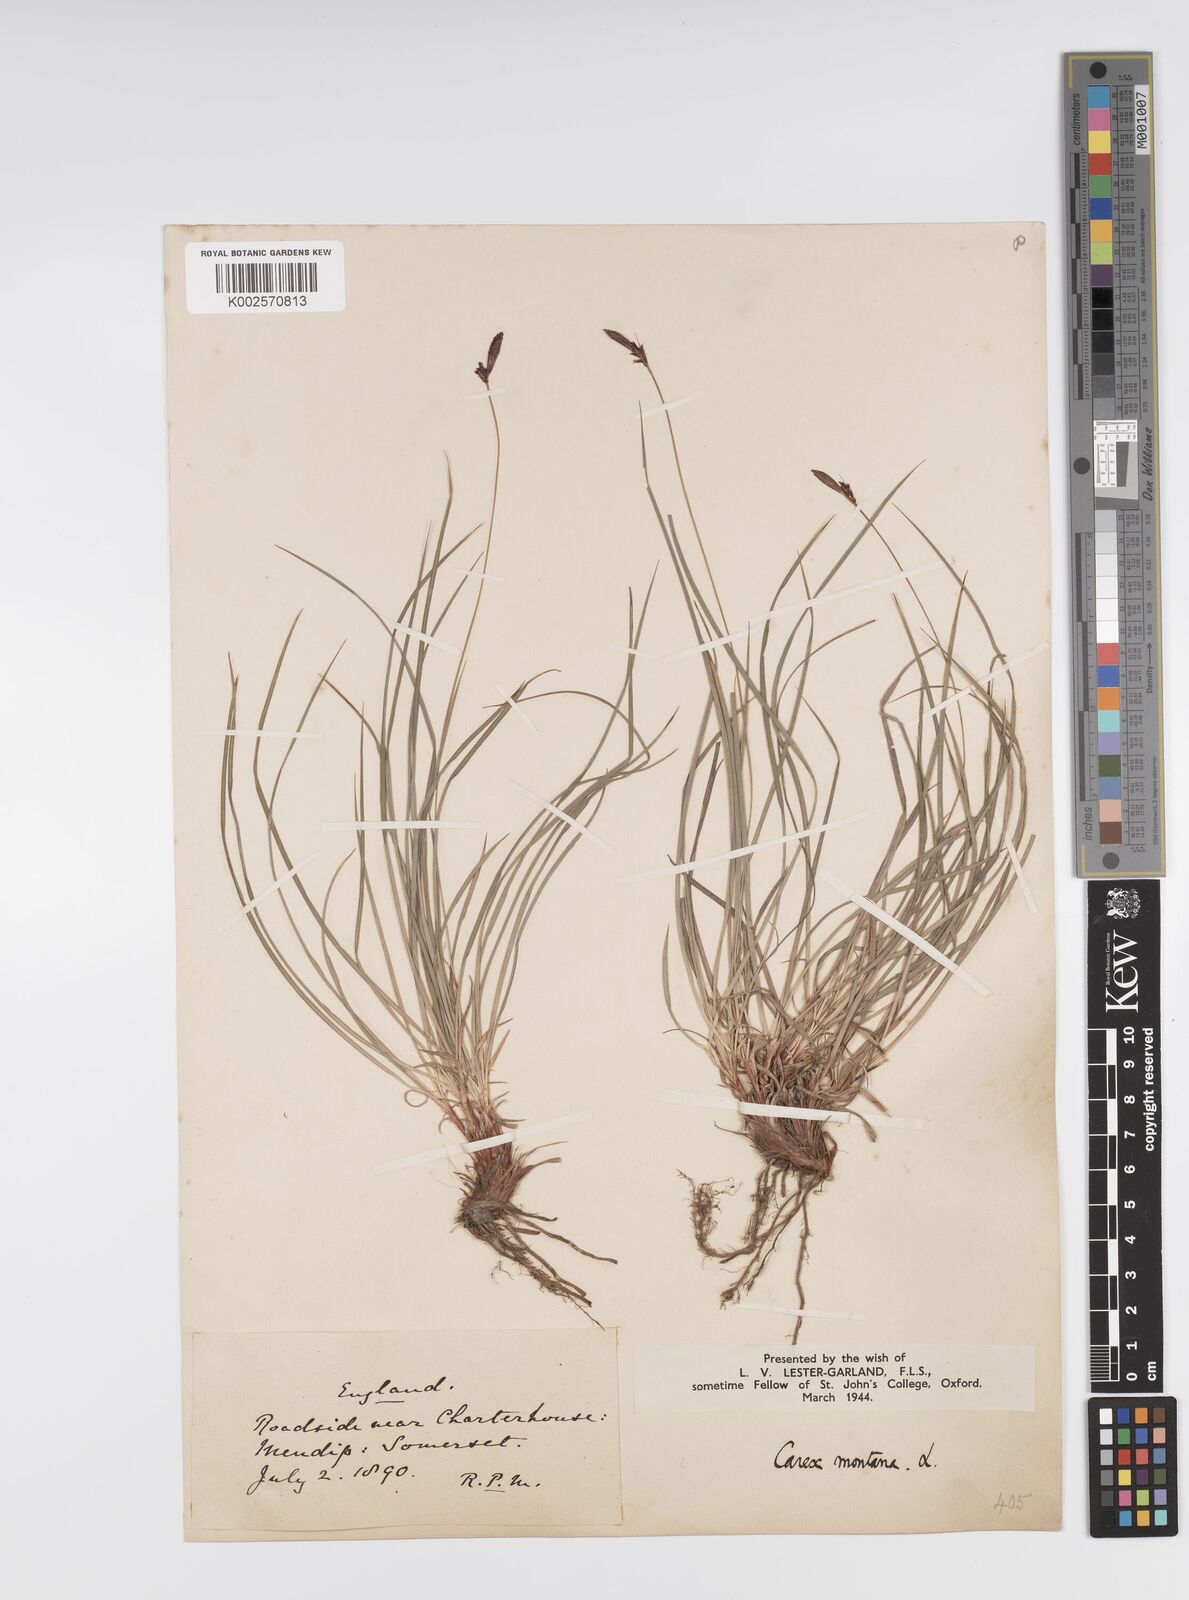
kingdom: Plantae
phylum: Tracheophyta
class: Liliopsida
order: Poales
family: Cyperaceae
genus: Carex
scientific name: Carex montana
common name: Soft-leaved sedge
